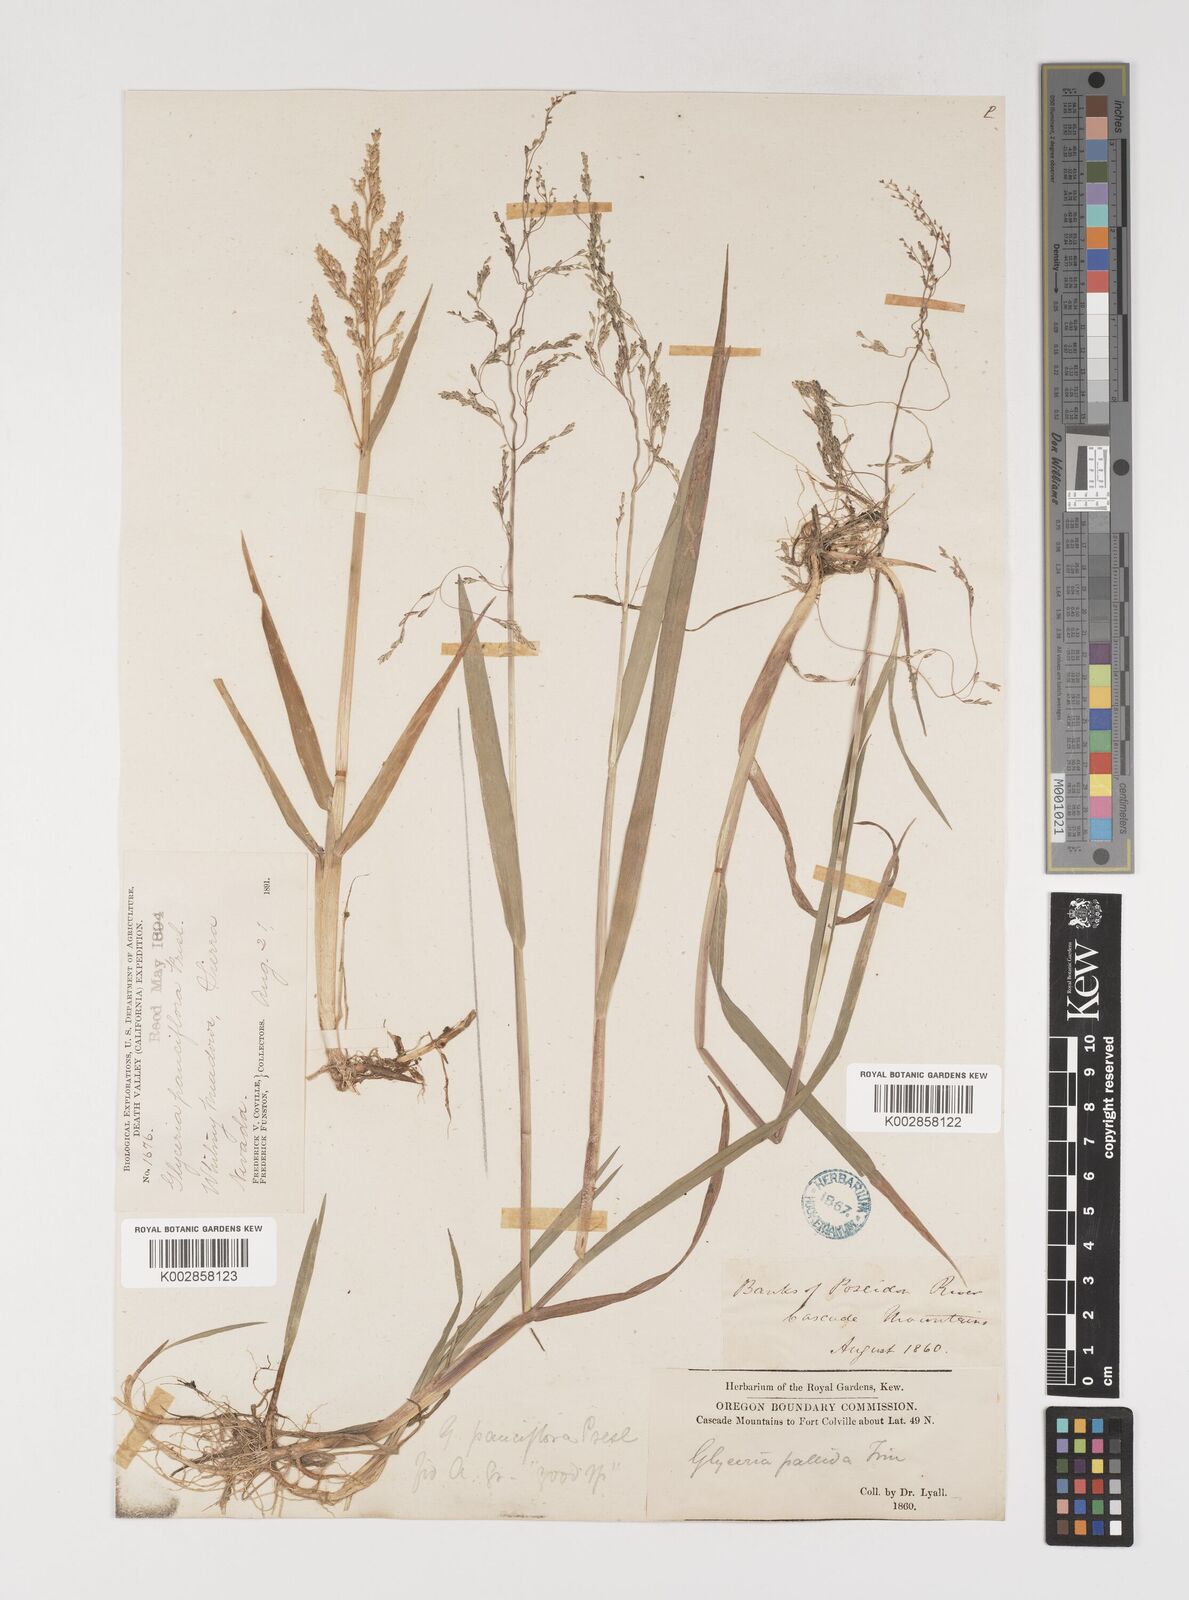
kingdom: Plantae
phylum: Tracheophyta
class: Liliopsida
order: Poales
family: Poaceae
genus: Torreyochloa
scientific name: Torreyochloa pallida
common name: Pale false mannagrass
